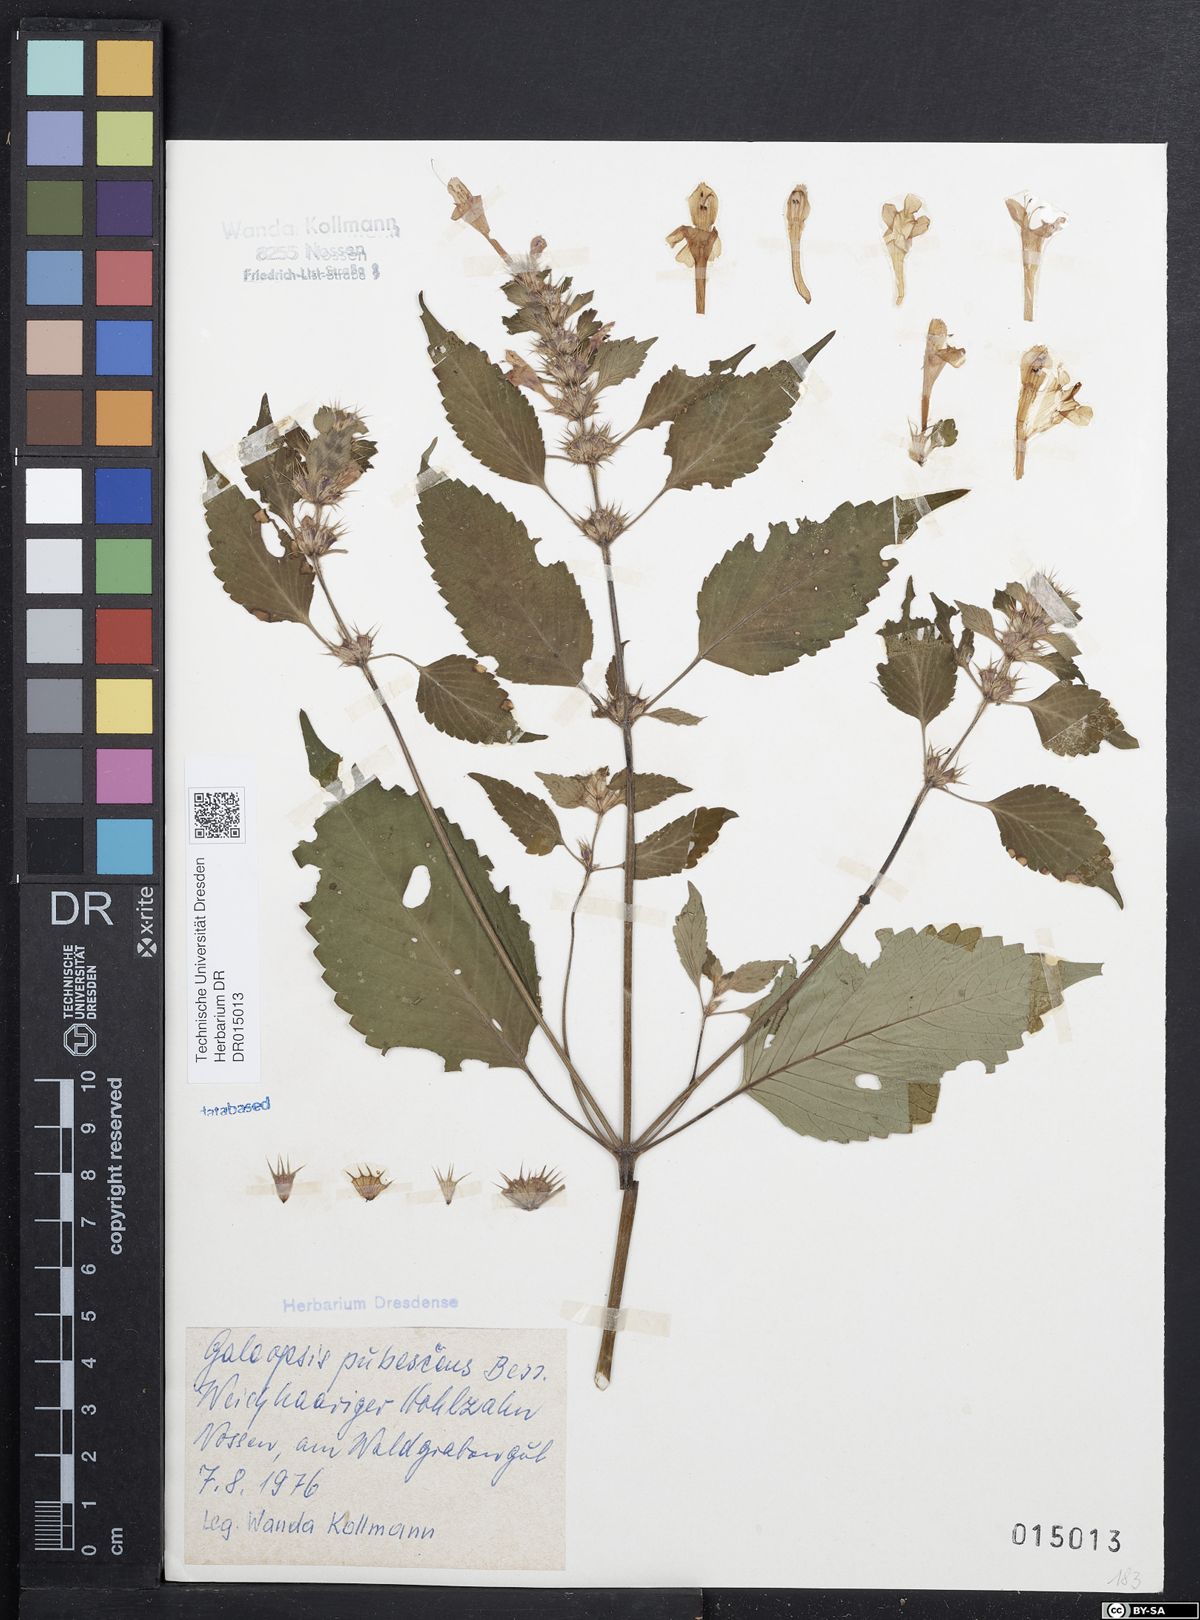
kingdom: Plantae
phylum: Tracheophyta
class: Magnoliopsida
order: Lamiales
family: Lamiaceae
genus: Galeopsis
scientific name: Galeopsis pubescens
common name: Downy hemp-nettle
